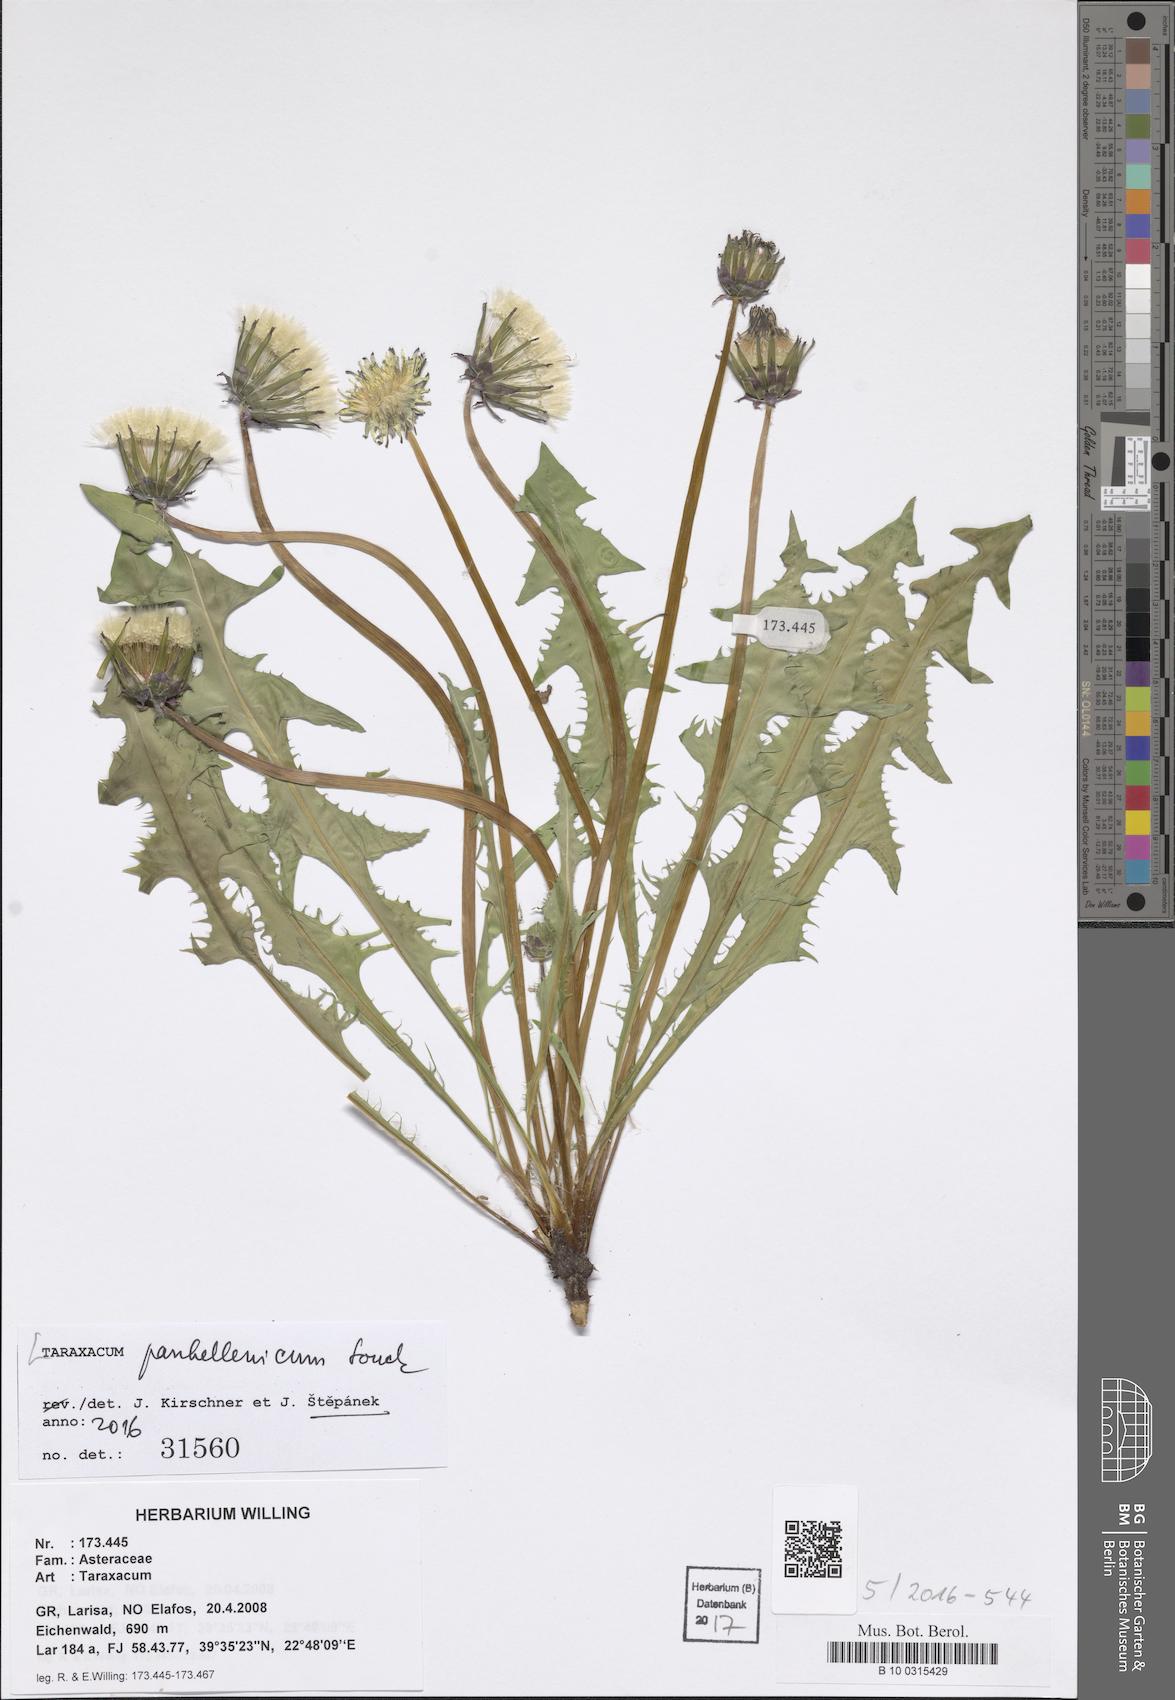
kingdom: Plantae
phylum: Tracheophyta
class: Magnoliopsida
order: Asterales
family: Asteraceae
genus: Taraxacum
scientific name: Taraxacum panhellenicum
